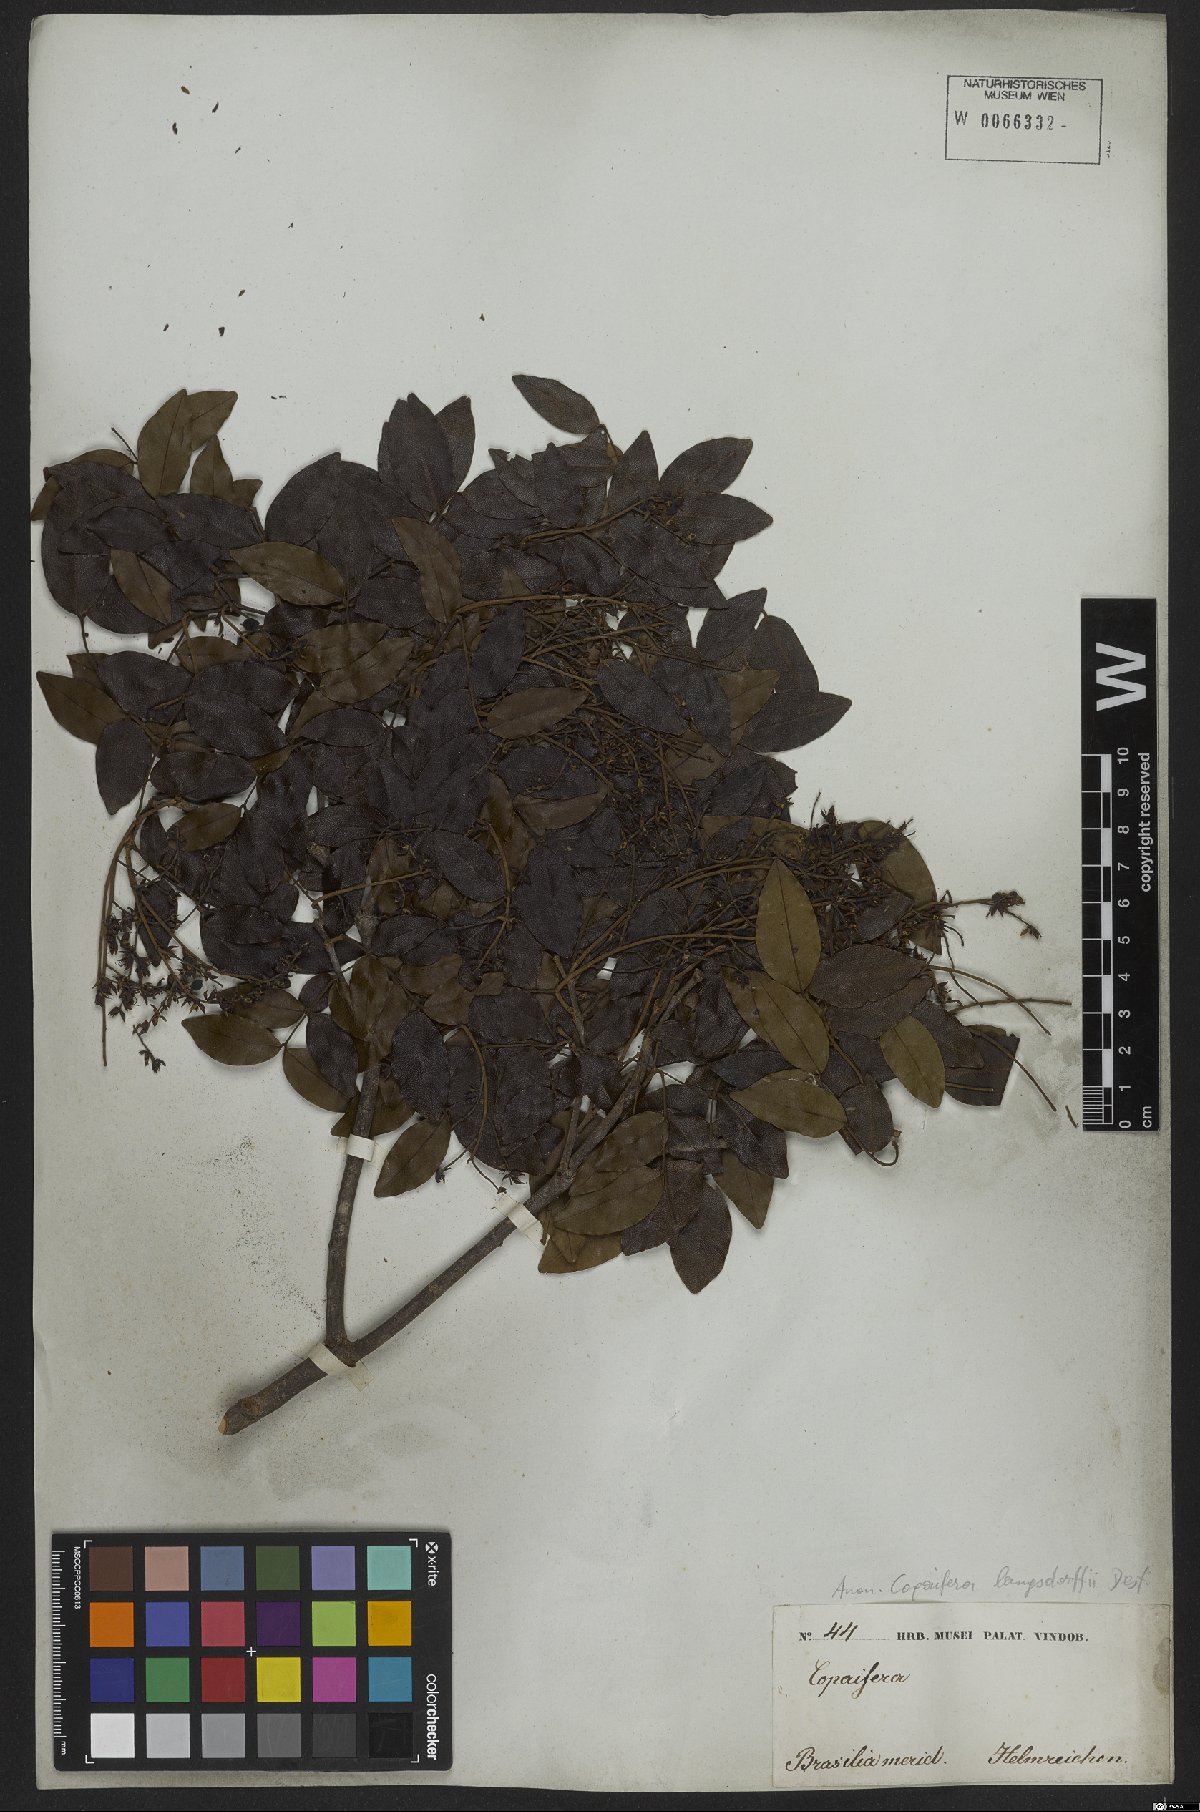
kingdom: Plantae
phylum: Tracheophyta
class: Magnoliopsida
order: Fabales
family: Fabaceae
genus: Copaifera
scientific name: Copaifera langsdorffii
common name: Brazilian diesel tree
